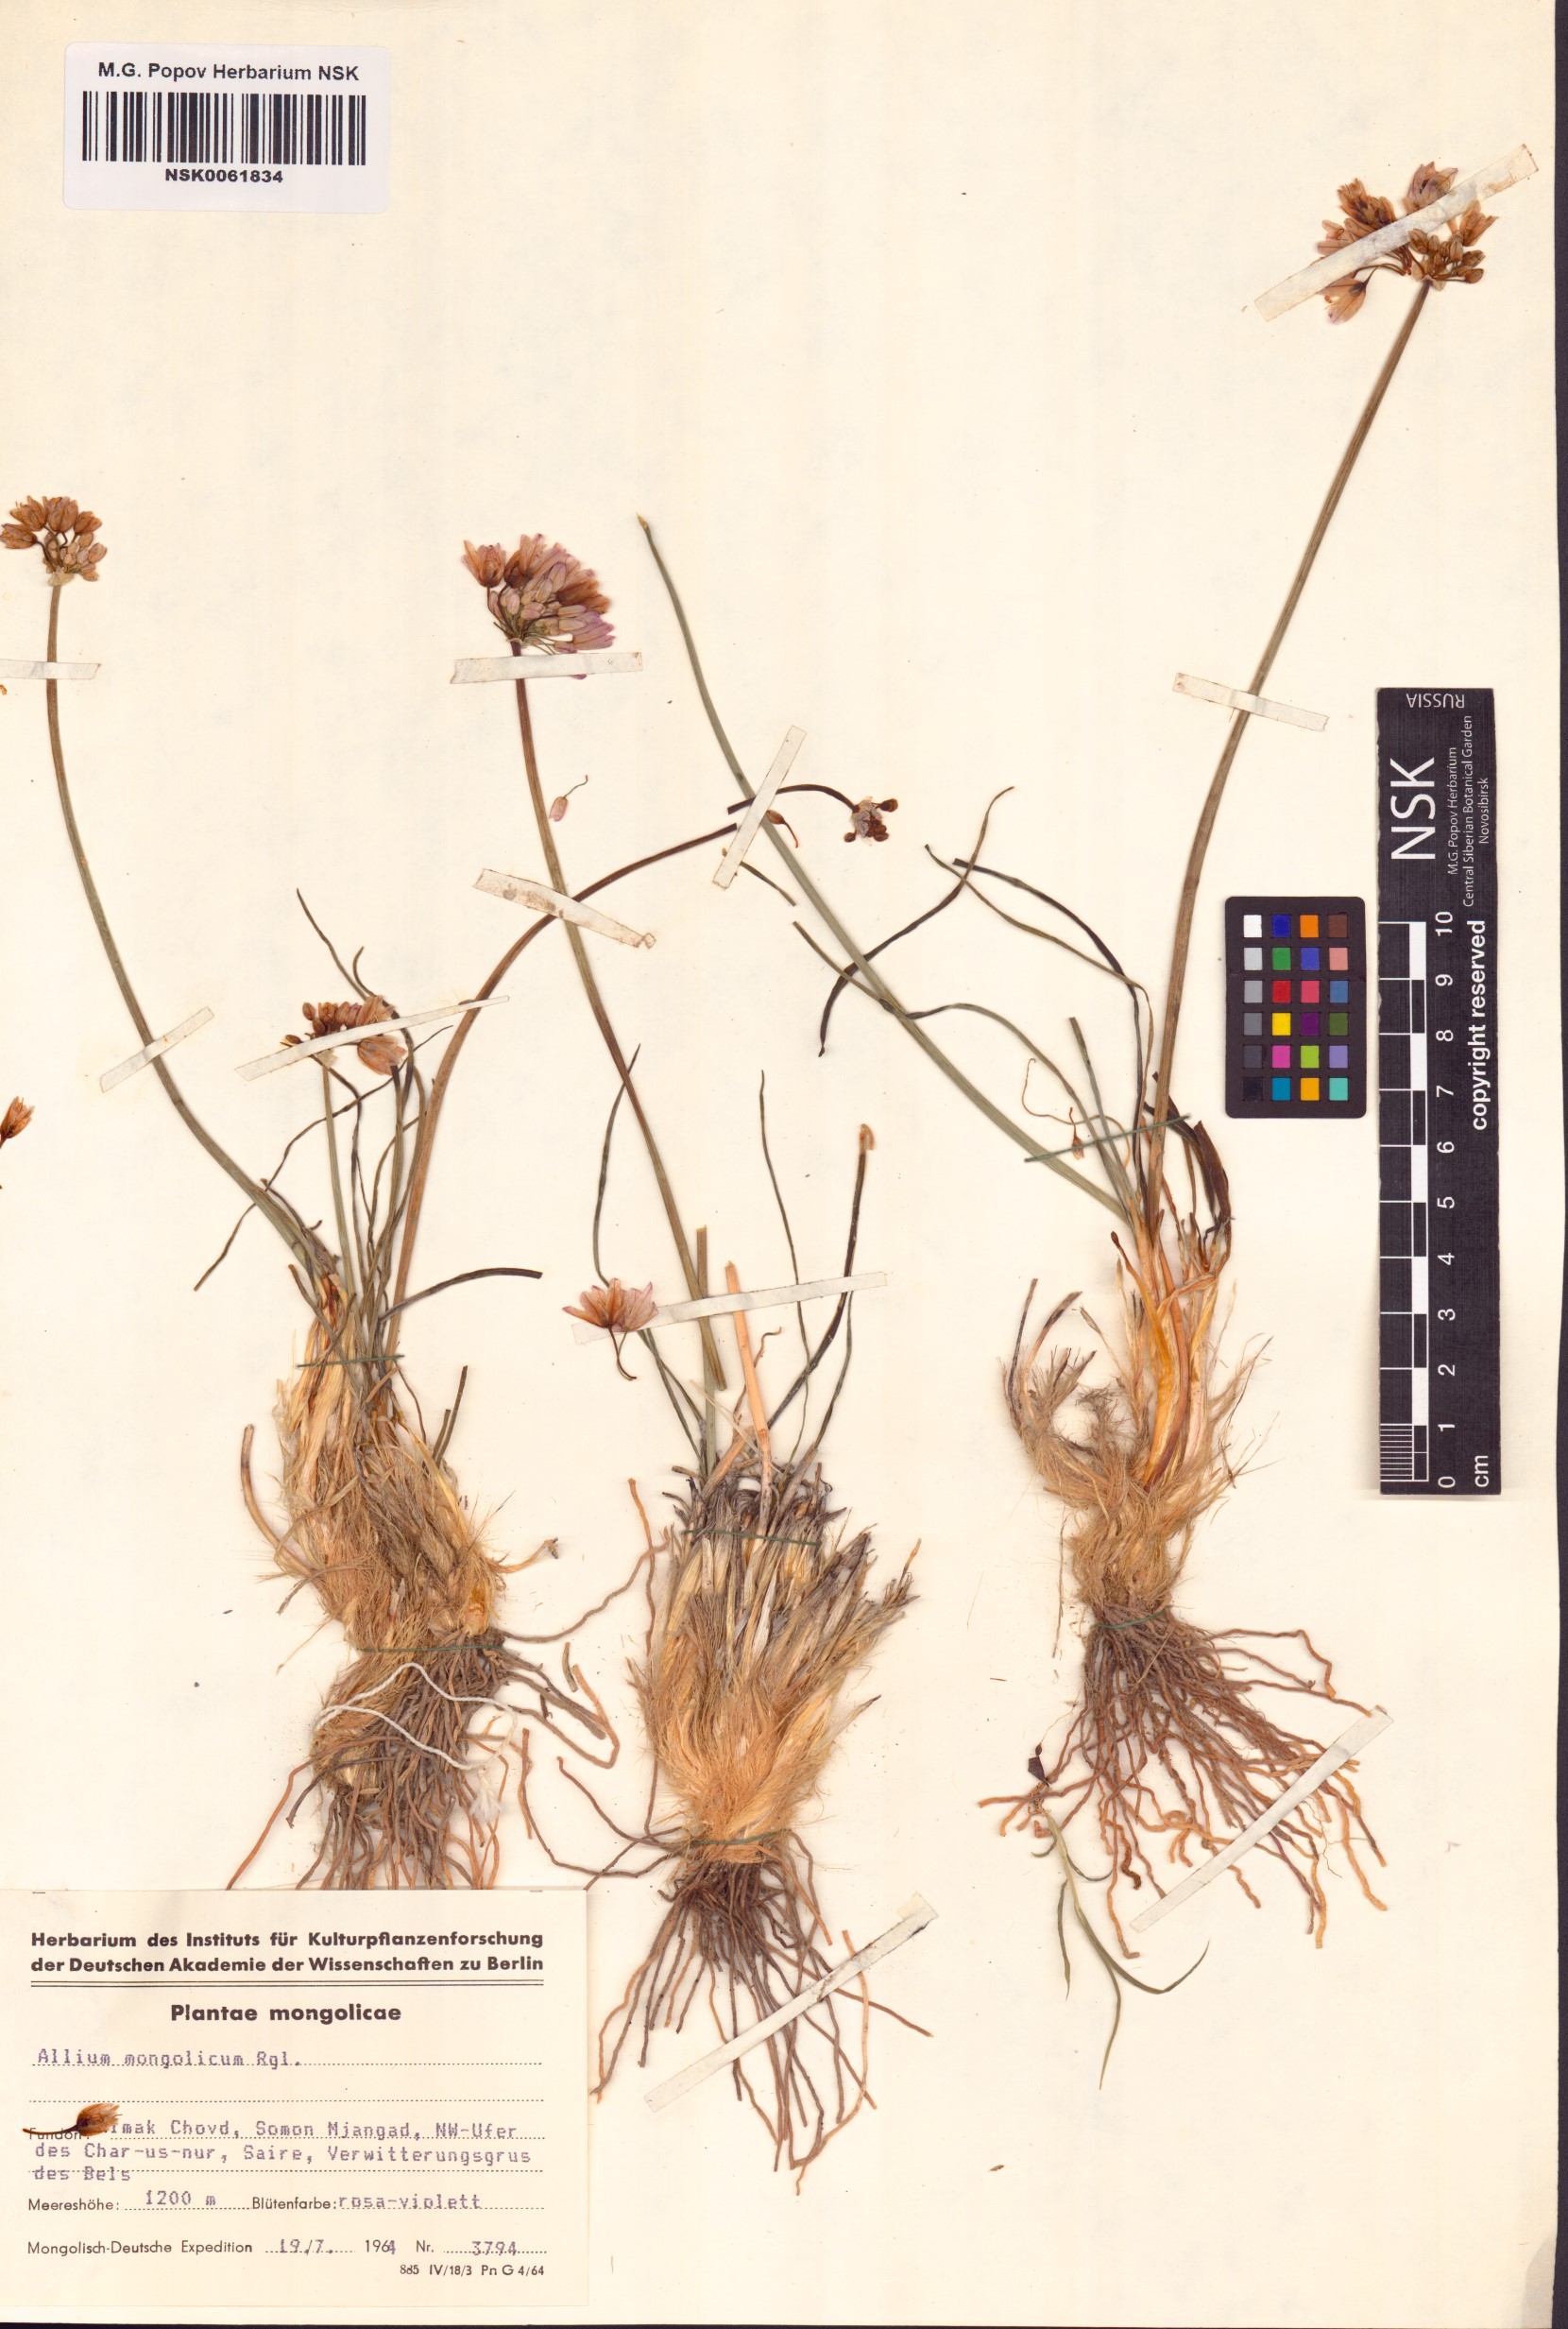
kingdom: Plantae
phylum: Tracheophyta
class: Liliopsida
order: Asparagales
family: Amaryllidaceae
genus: Allium
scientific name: Allium mongolicum
